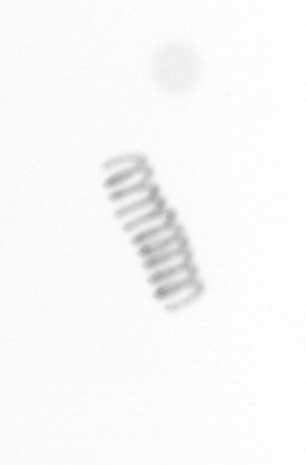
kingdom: Chromista
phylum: Ochrophyta
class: Bacillariophyceae
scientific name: Bacillariophyceae
